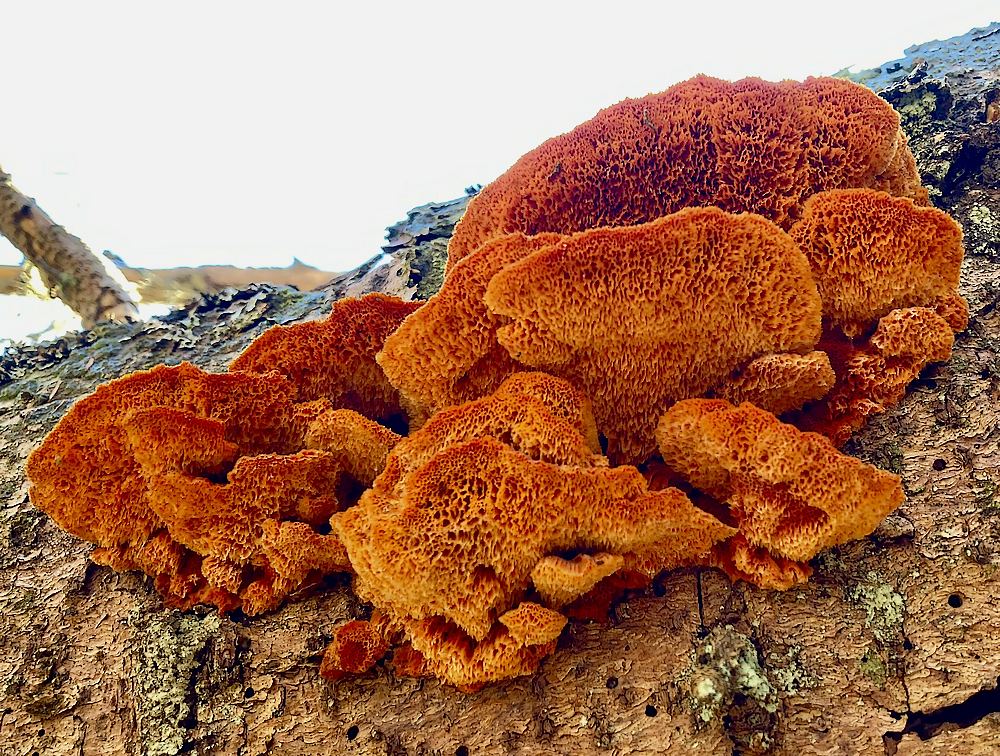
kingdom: Fungi
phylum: Basidiomycota
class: Agaricomycetes
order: Polyporales
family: Pycnoporellaceae
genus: Pycnoporellus
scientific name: Pycnoporellus fulgens
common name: flammeporesvamp
